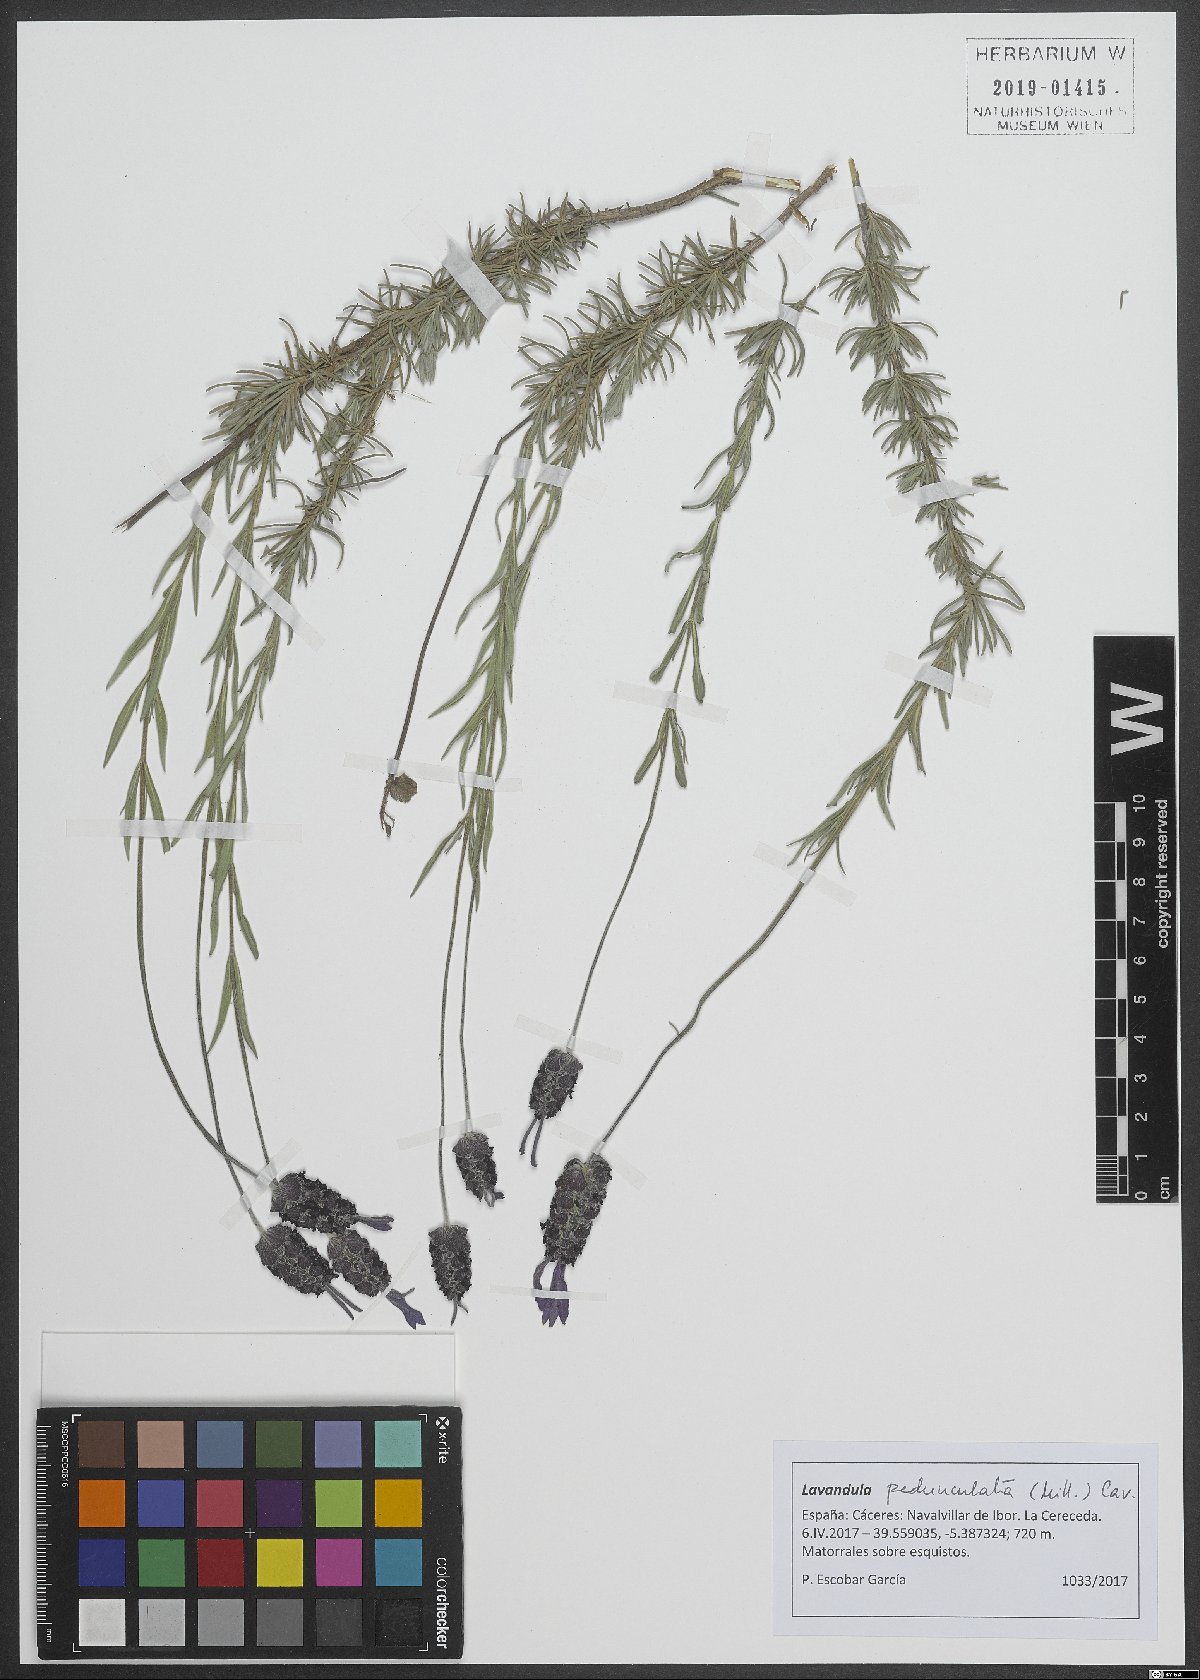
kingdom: Plantae
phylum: Tracheophyta
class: Magnoliopsida
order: Lamiales
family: Lamiaceae
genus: Lavandula
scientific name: Lavandula pedunculata
